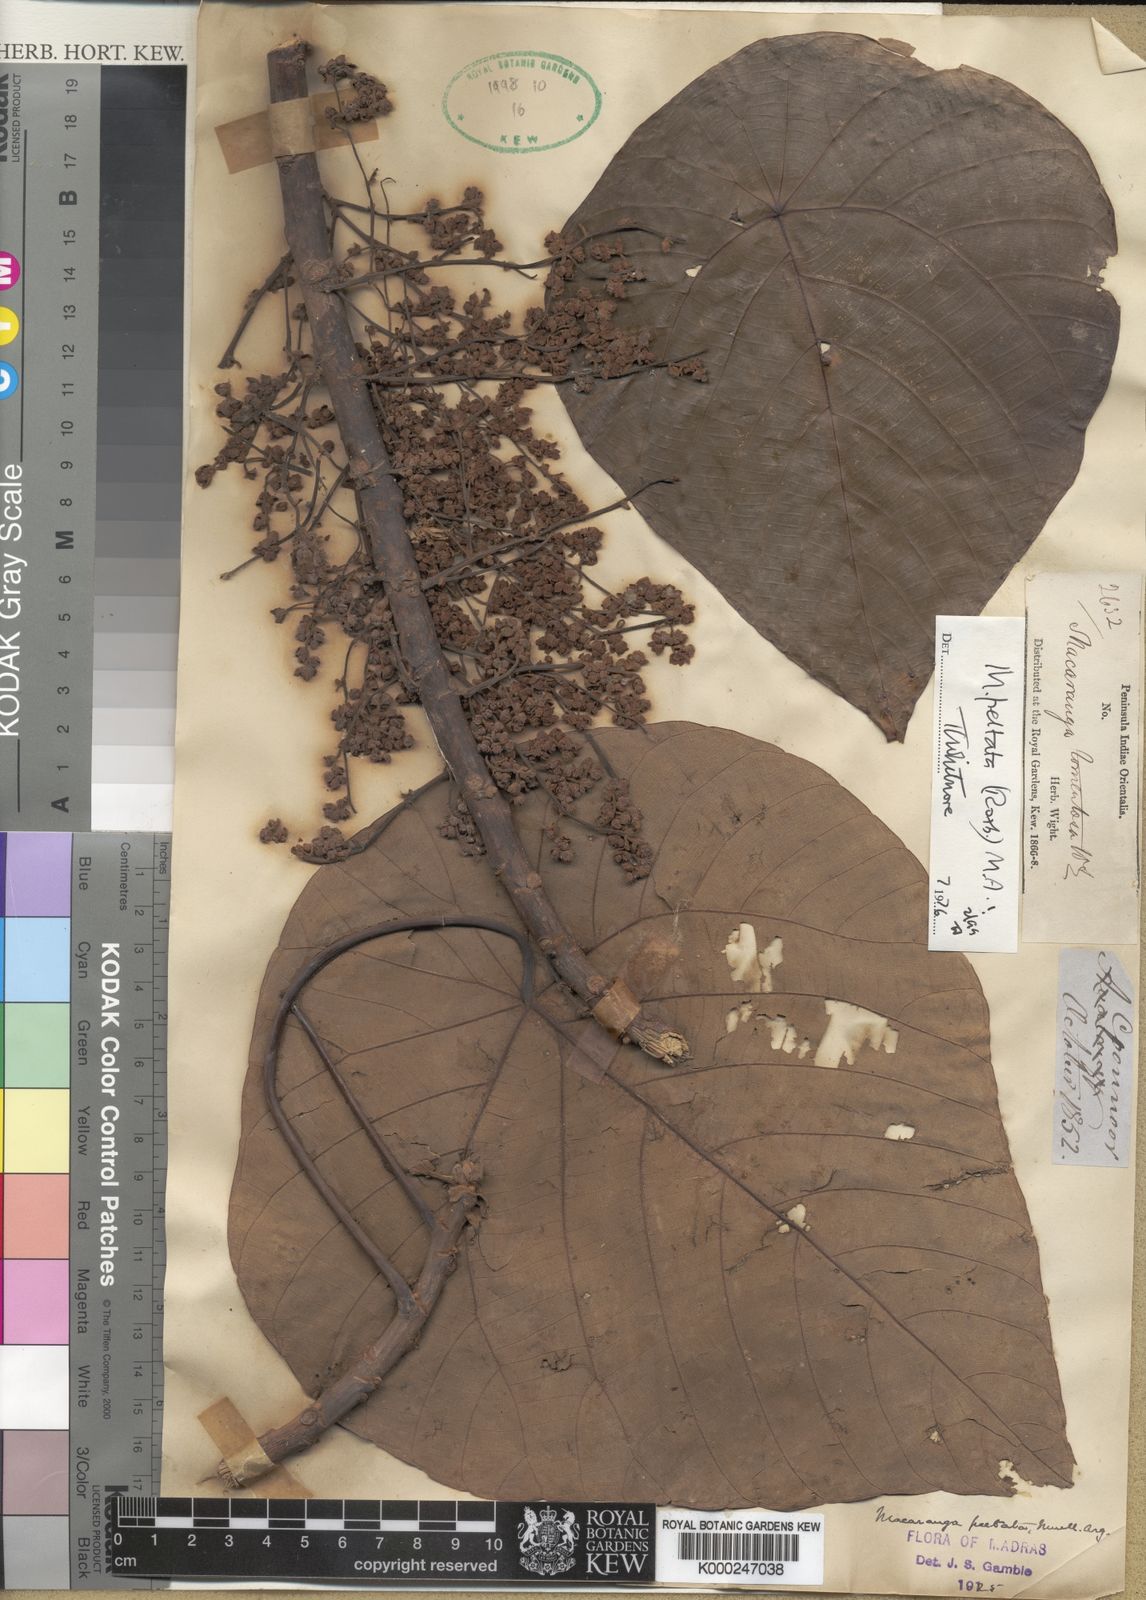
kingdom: Plantae
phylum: Tracheophyta
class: Magnoliopsida
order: Malpighiales
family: Euphorbiaceae
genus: Macaranga
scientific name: Macaranga
